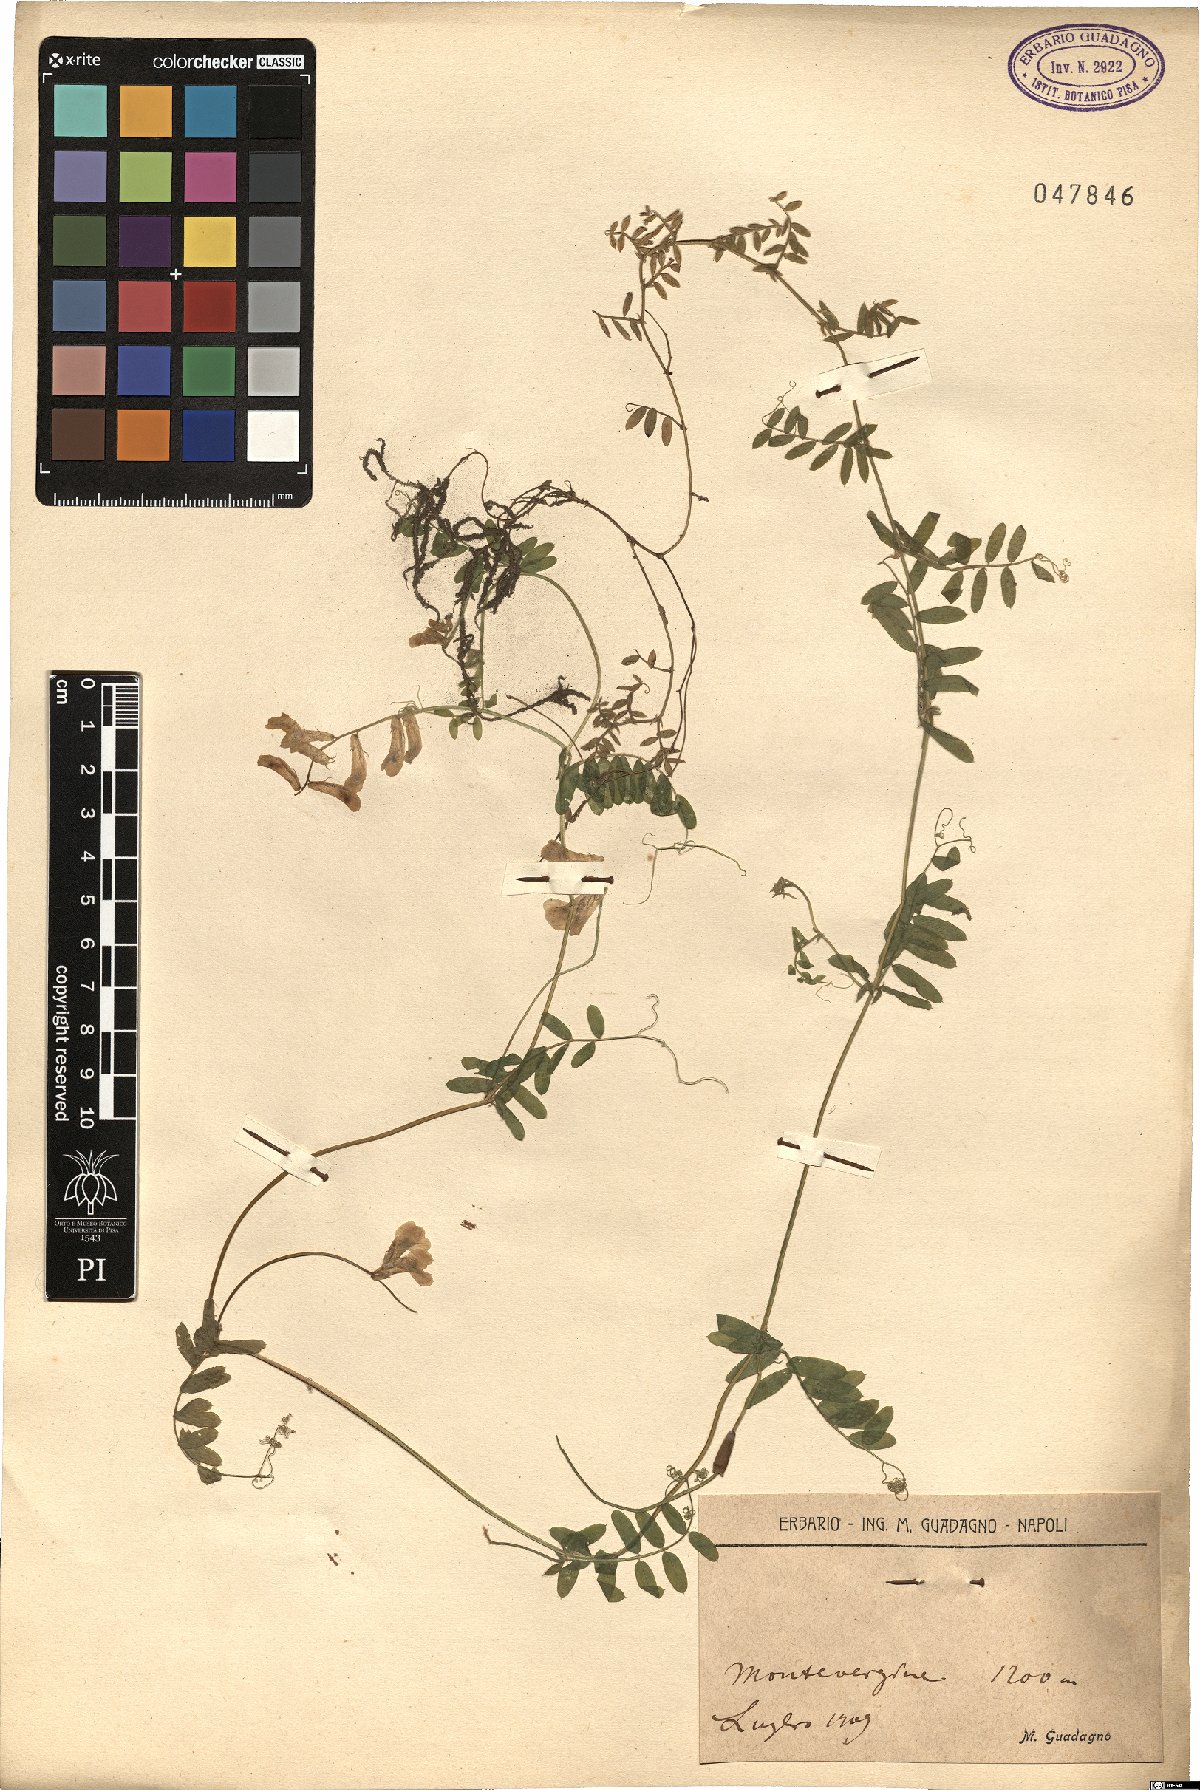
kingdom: Plantae
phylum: Tracheophyta
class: Magnoliopsida
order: Fabales
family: Fabaceae
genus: Vicia
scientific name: Vicia
